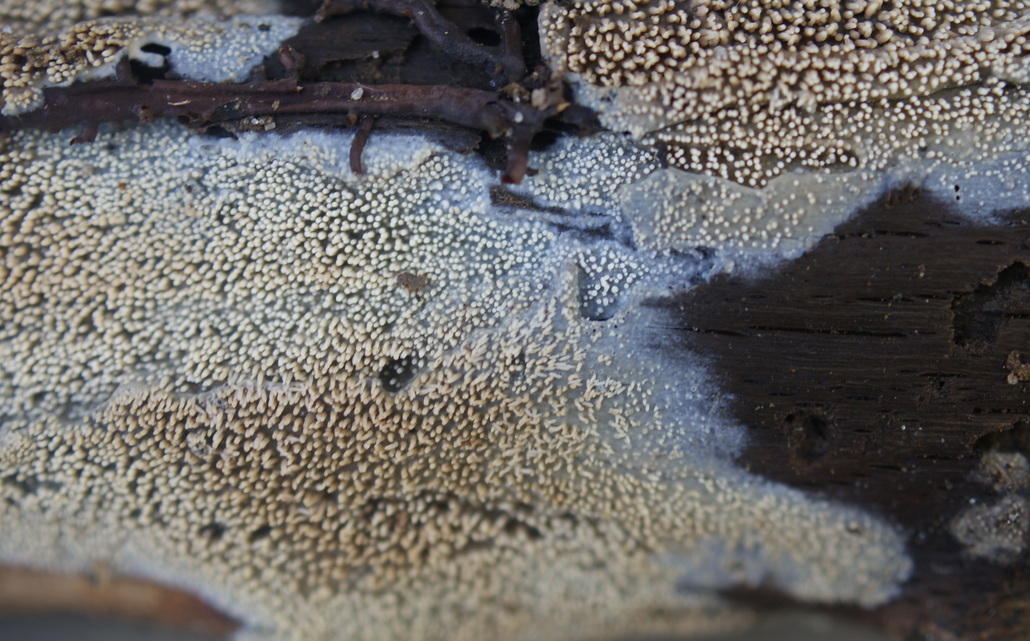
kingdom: Fungi
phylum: Basidiomycota
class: Agaricomycetes
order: Polyporales
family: Meruliaceae
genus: Mycoacia
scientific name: Mycoacia fuscoatra
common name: mørk vokspig
